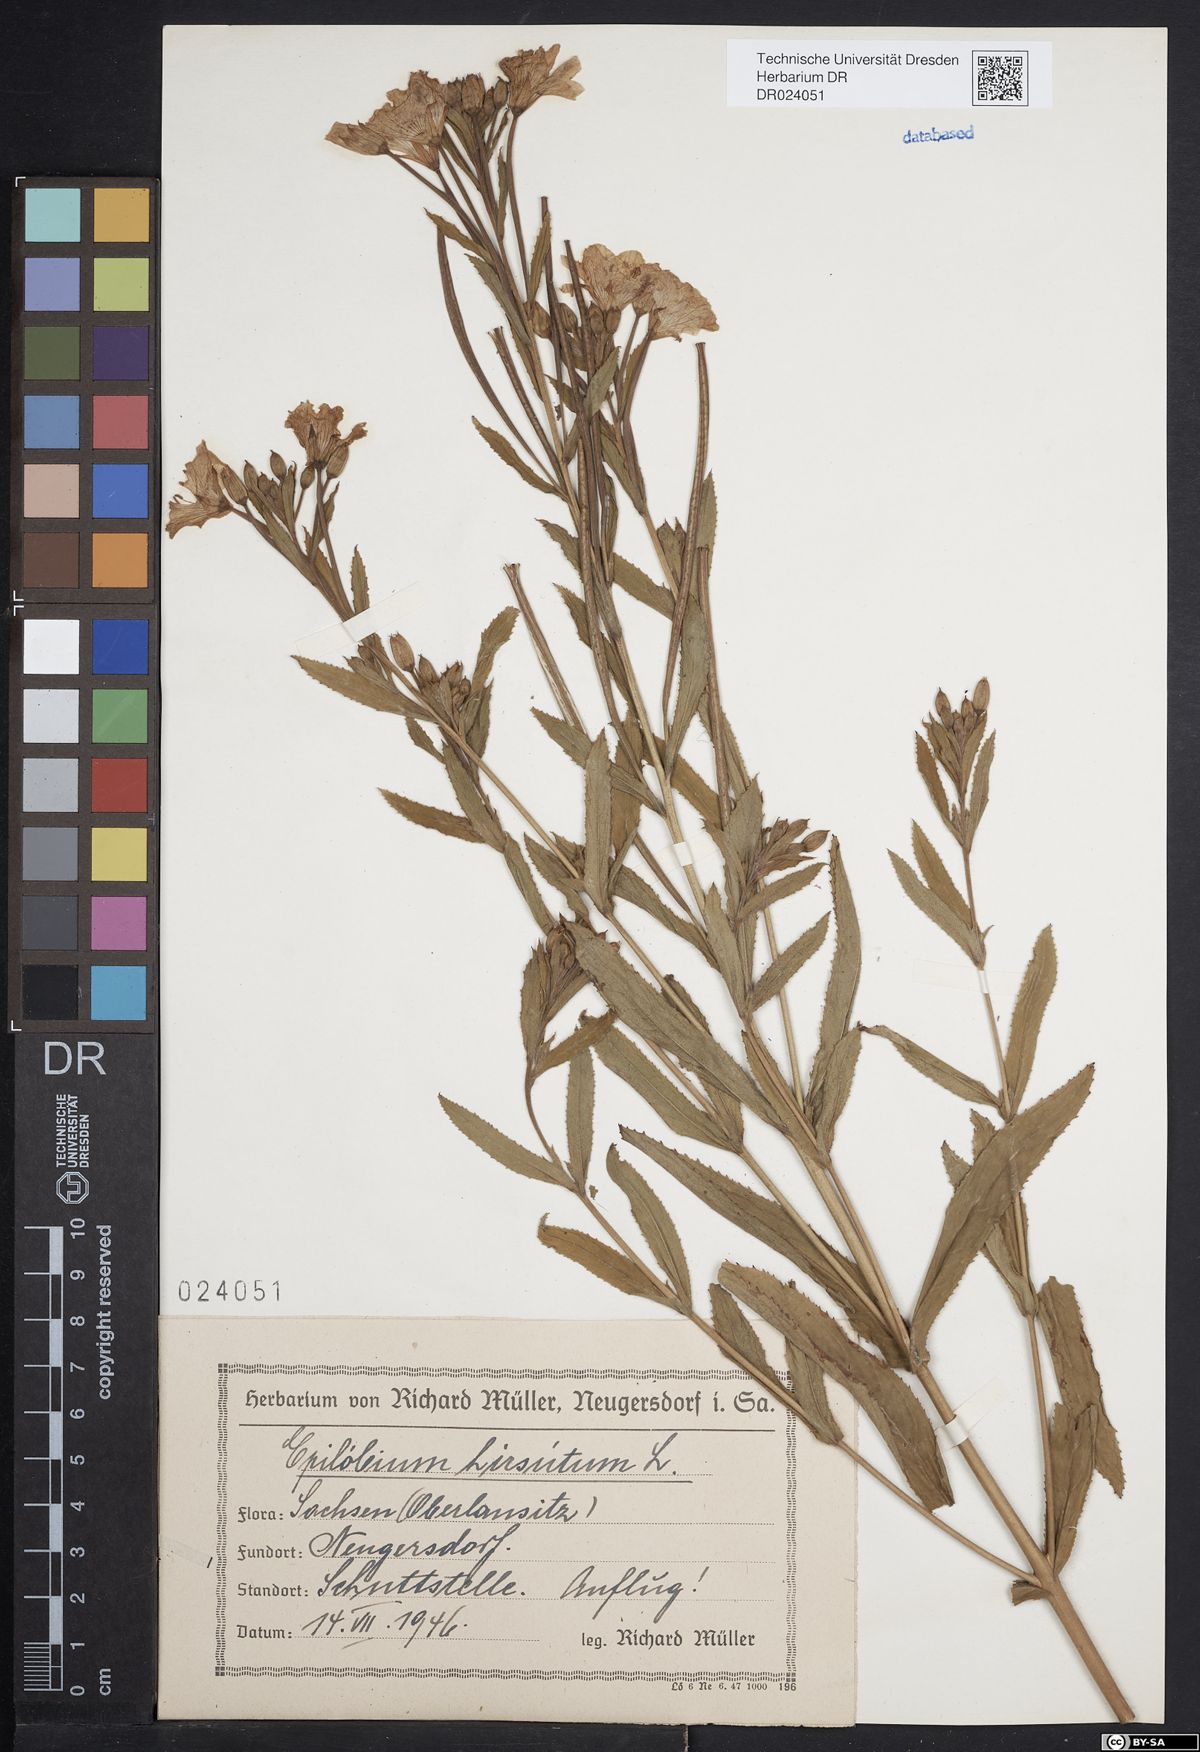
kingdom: Plantae
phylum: Tracheophyta
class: Magnoliopsida
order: Myrtales
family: Onagraceae
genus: Epilobium
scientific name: Epilobium hirsutum
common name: Great willowherb
